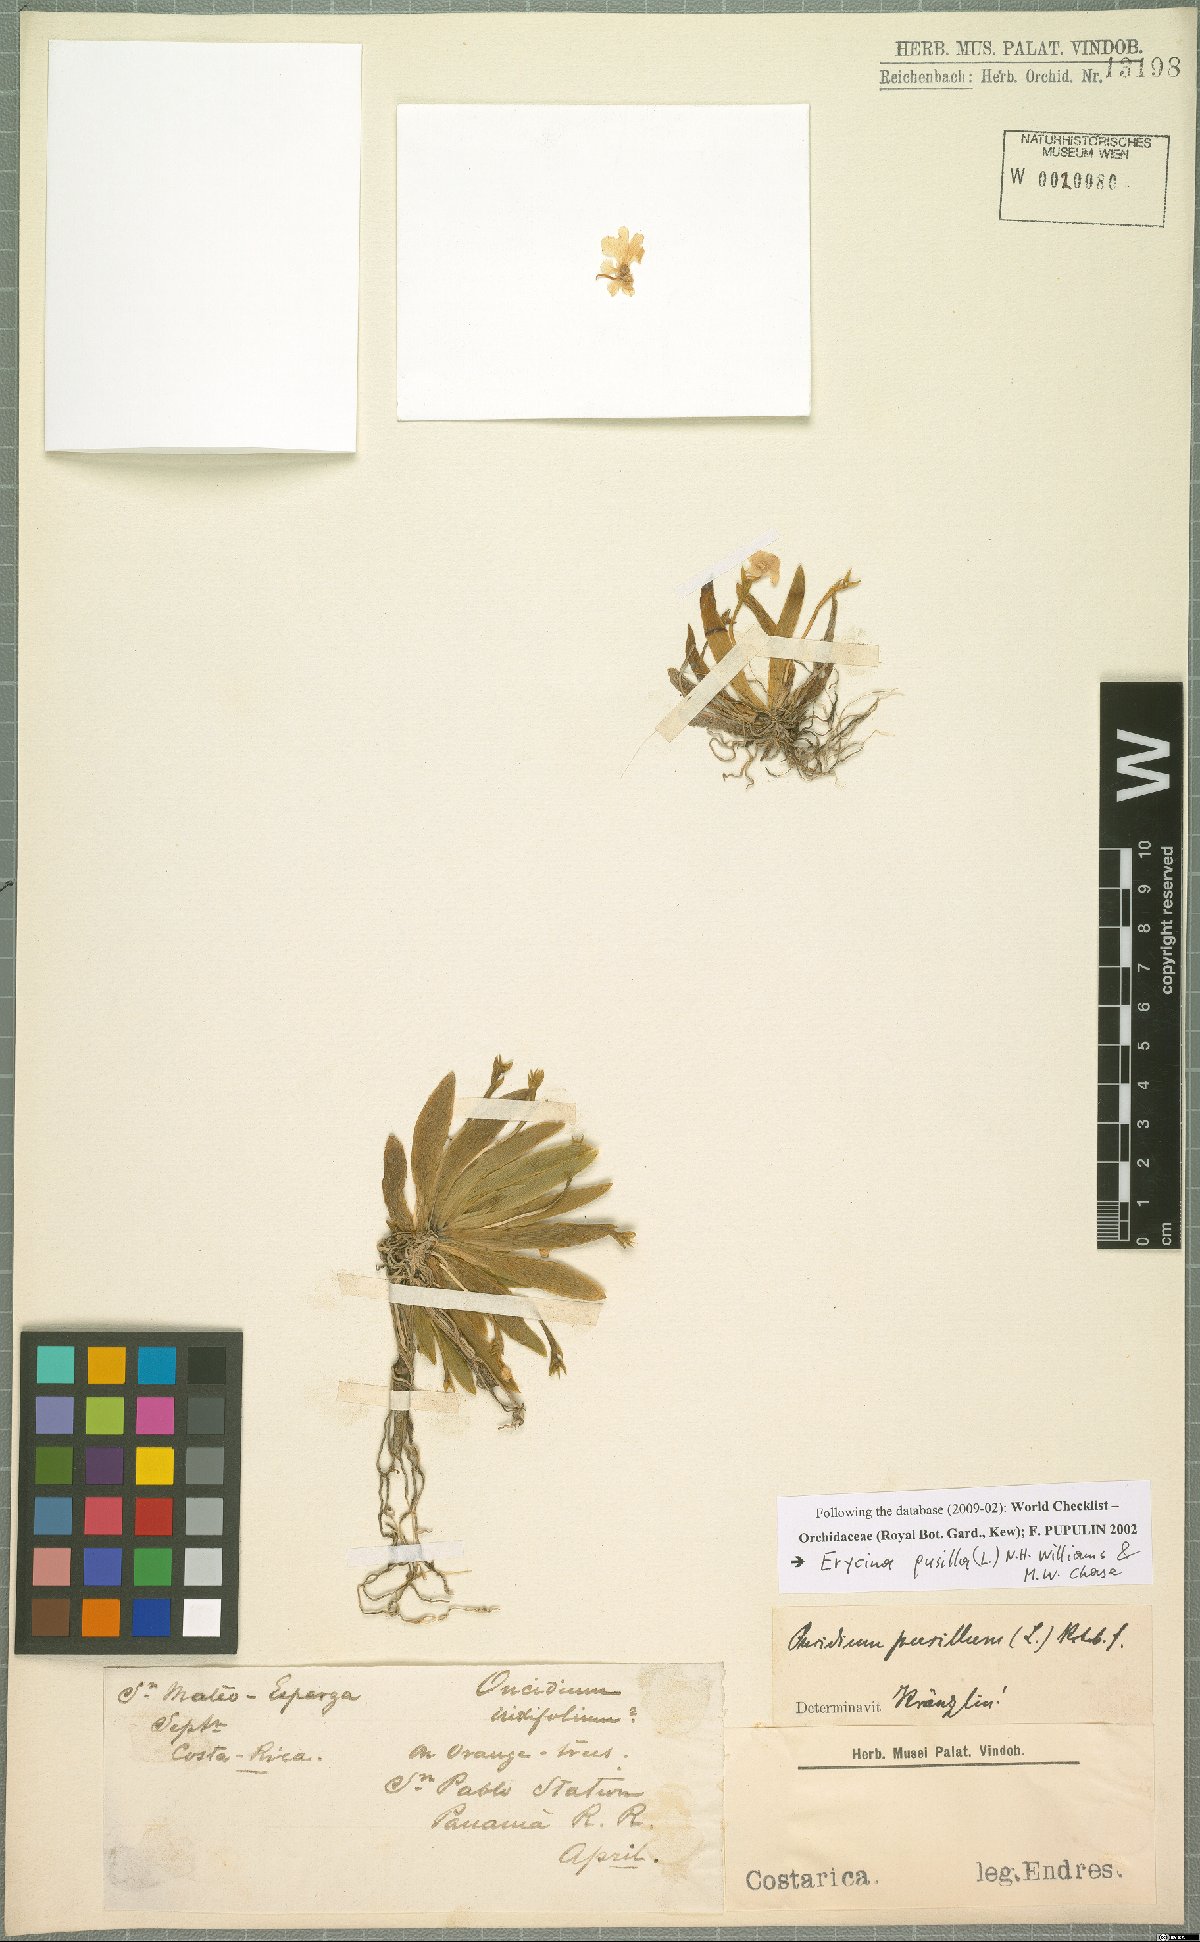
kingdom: Plantae
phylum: Tracheophyta
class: Liliopsida
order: Asparagales
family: Orchidaceae
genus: Erycina
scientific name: Erycina pusilla
